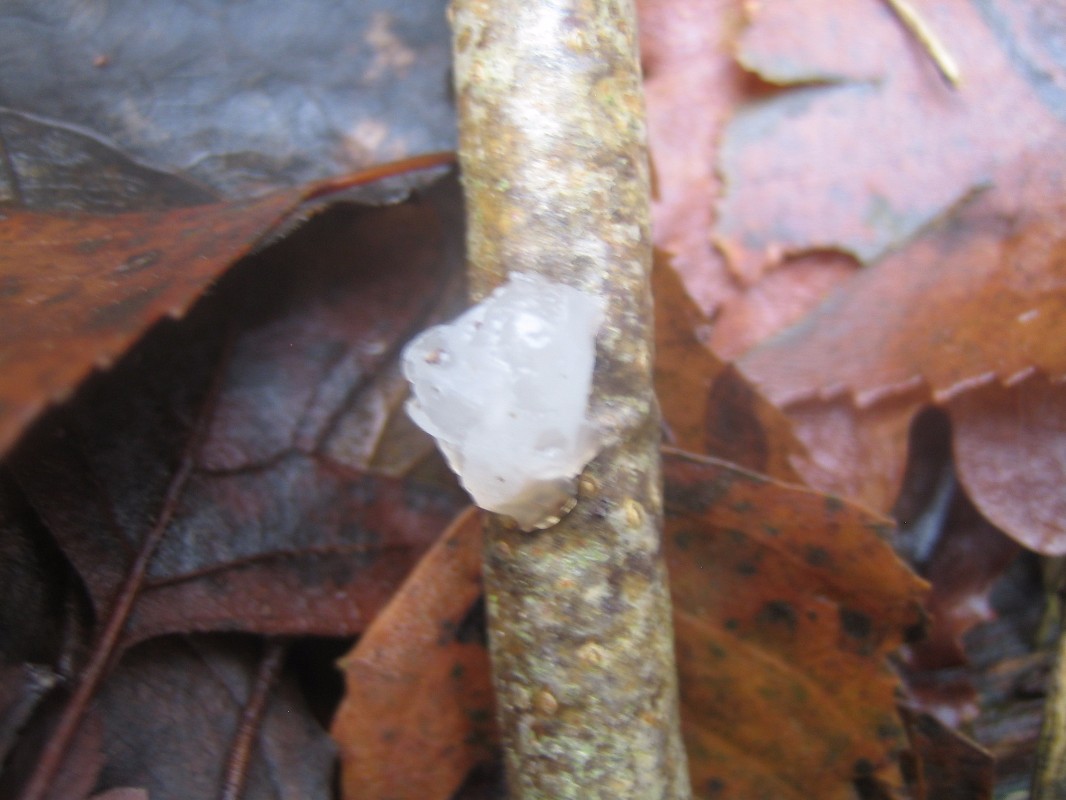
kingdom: Fungi
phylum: Basidiomycota
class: Agaricomycetes
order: Auriculariales
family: Hyaloriaceae
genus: Myxarium
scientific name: Myxarium nucleatum
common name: klar bævretop
